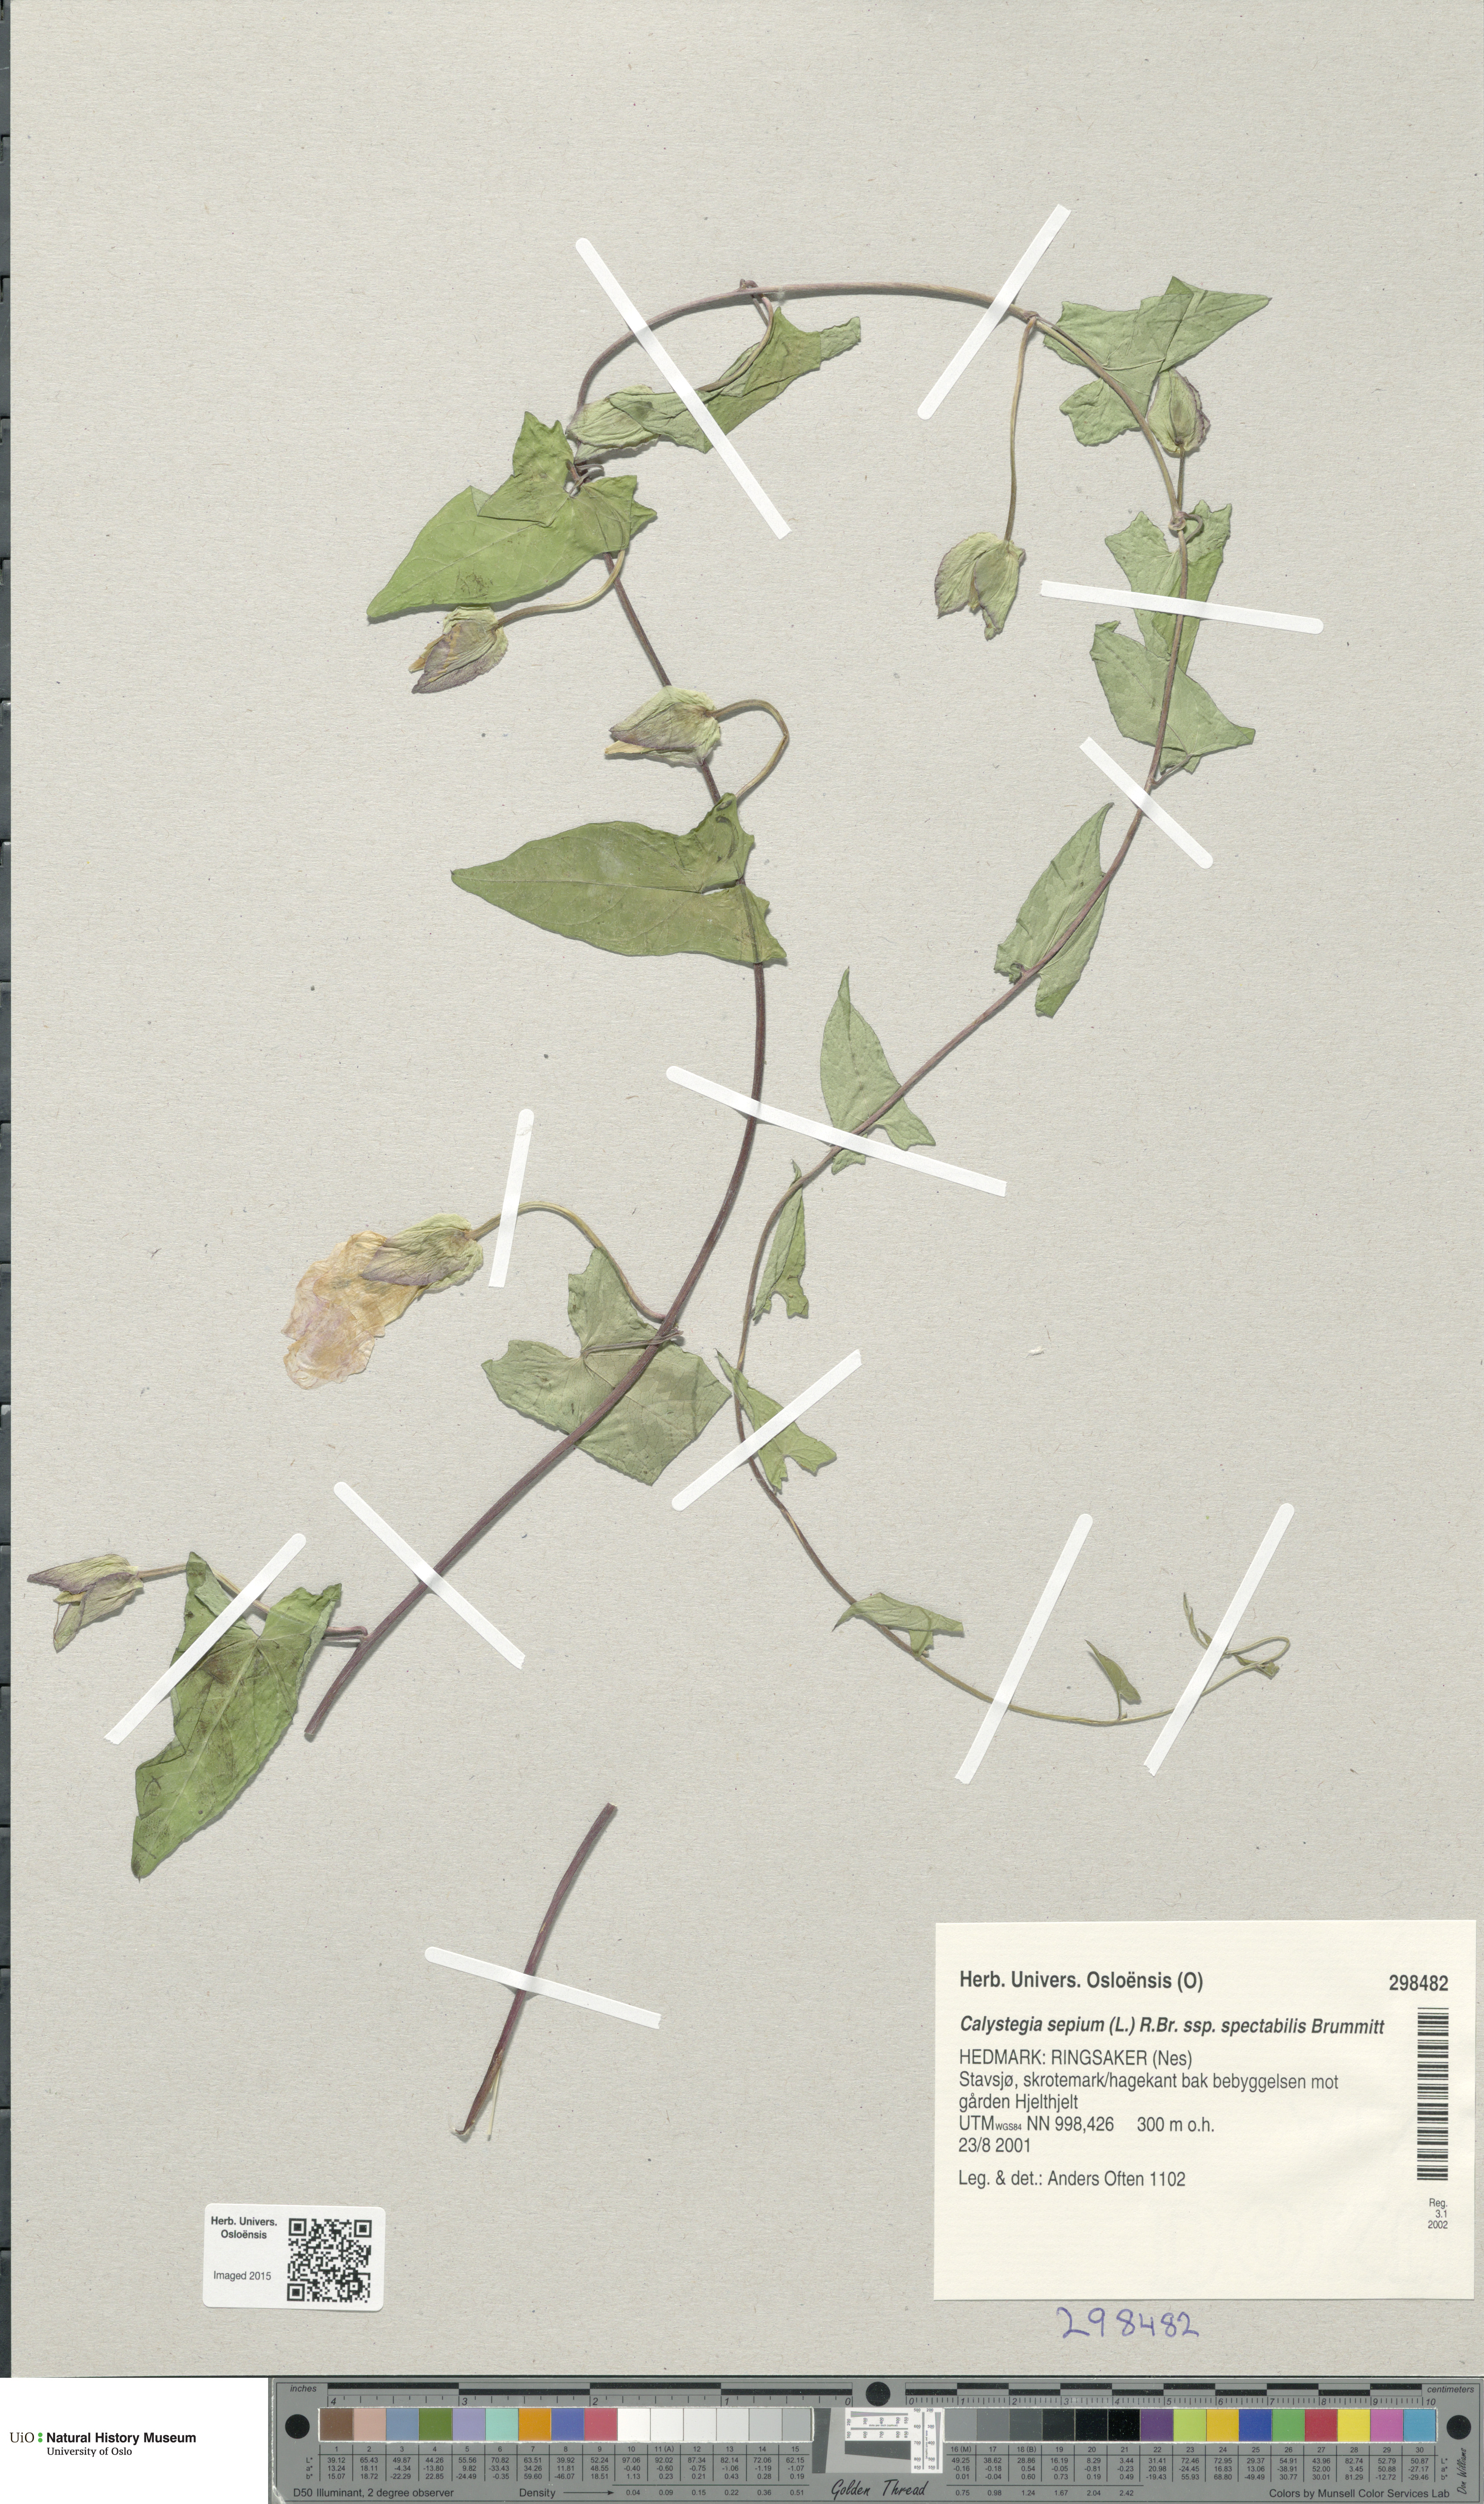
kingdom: Plantae
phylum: Tracheophyta
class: Magnoliopsida
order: Solanales
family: Convolvulaceae
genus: Calystegia
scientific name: Calystegia sepium
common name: Hedge bindweed
